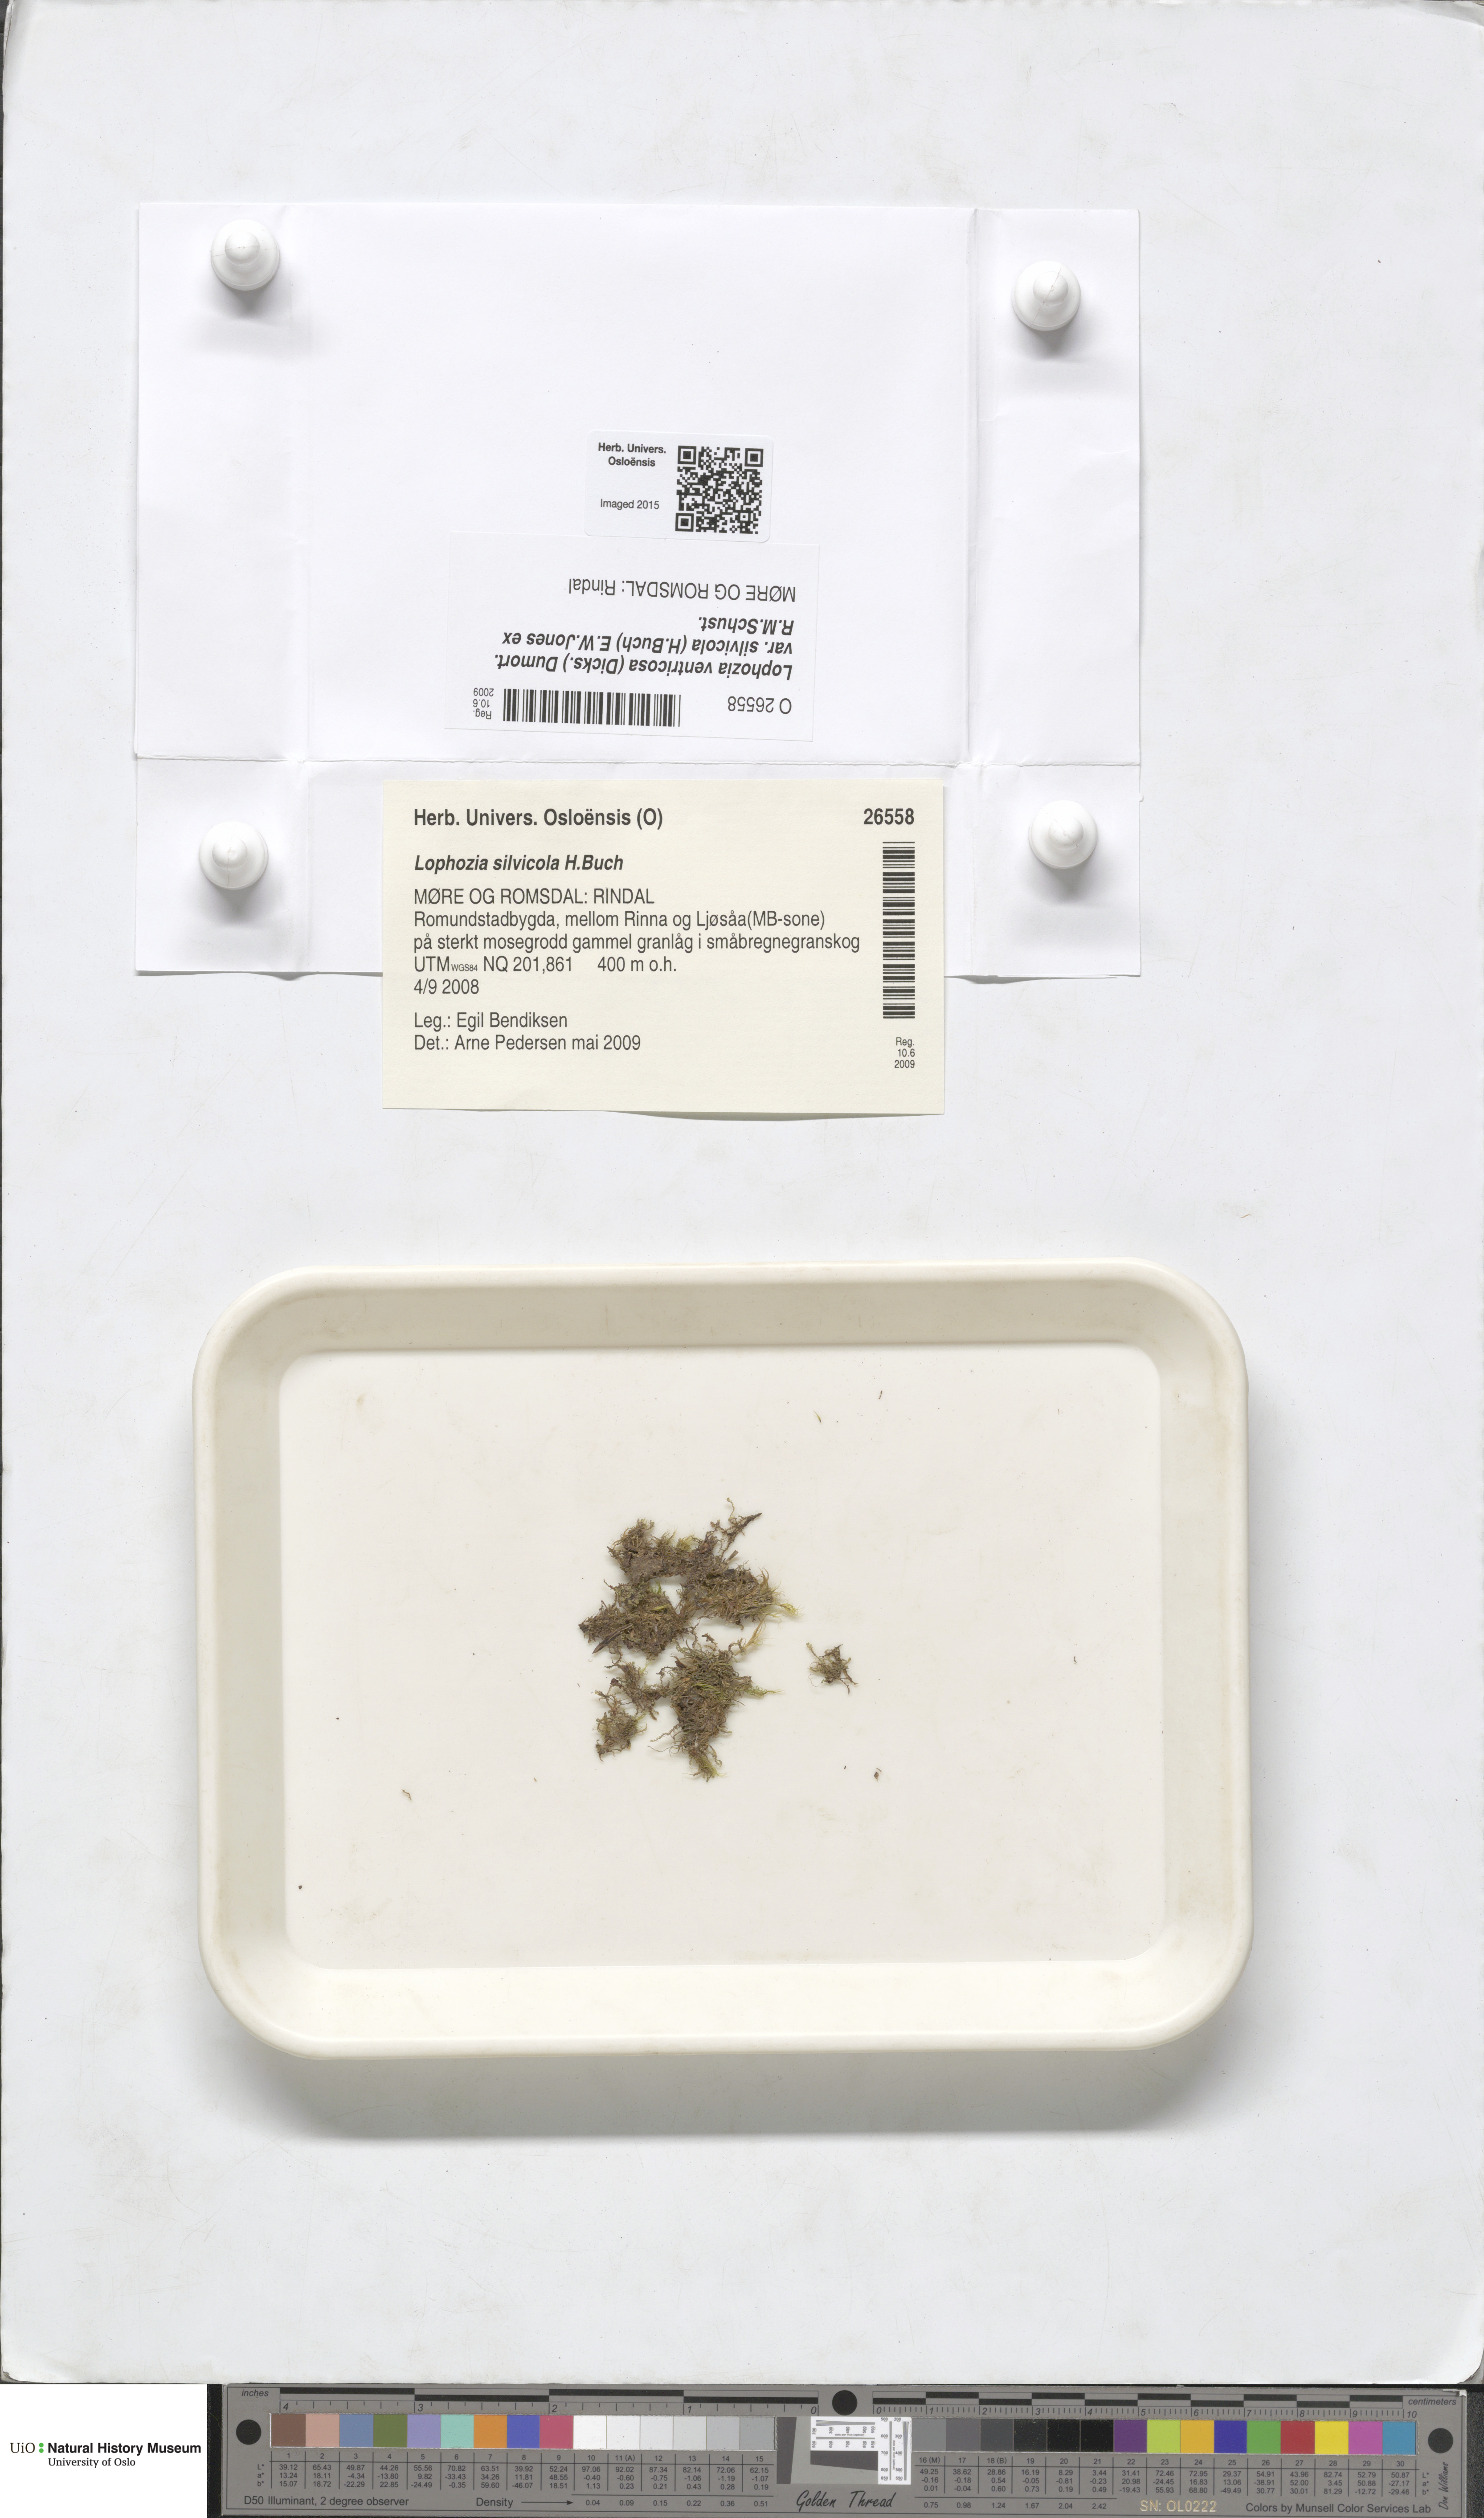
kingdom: Plantae
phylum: Marchantiophyta
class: Jungermanniopsida
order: Jungermanniales
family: Lophoziaceae
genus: Lophozia
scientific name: Lophozia silvicola
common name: Forest notchwort
